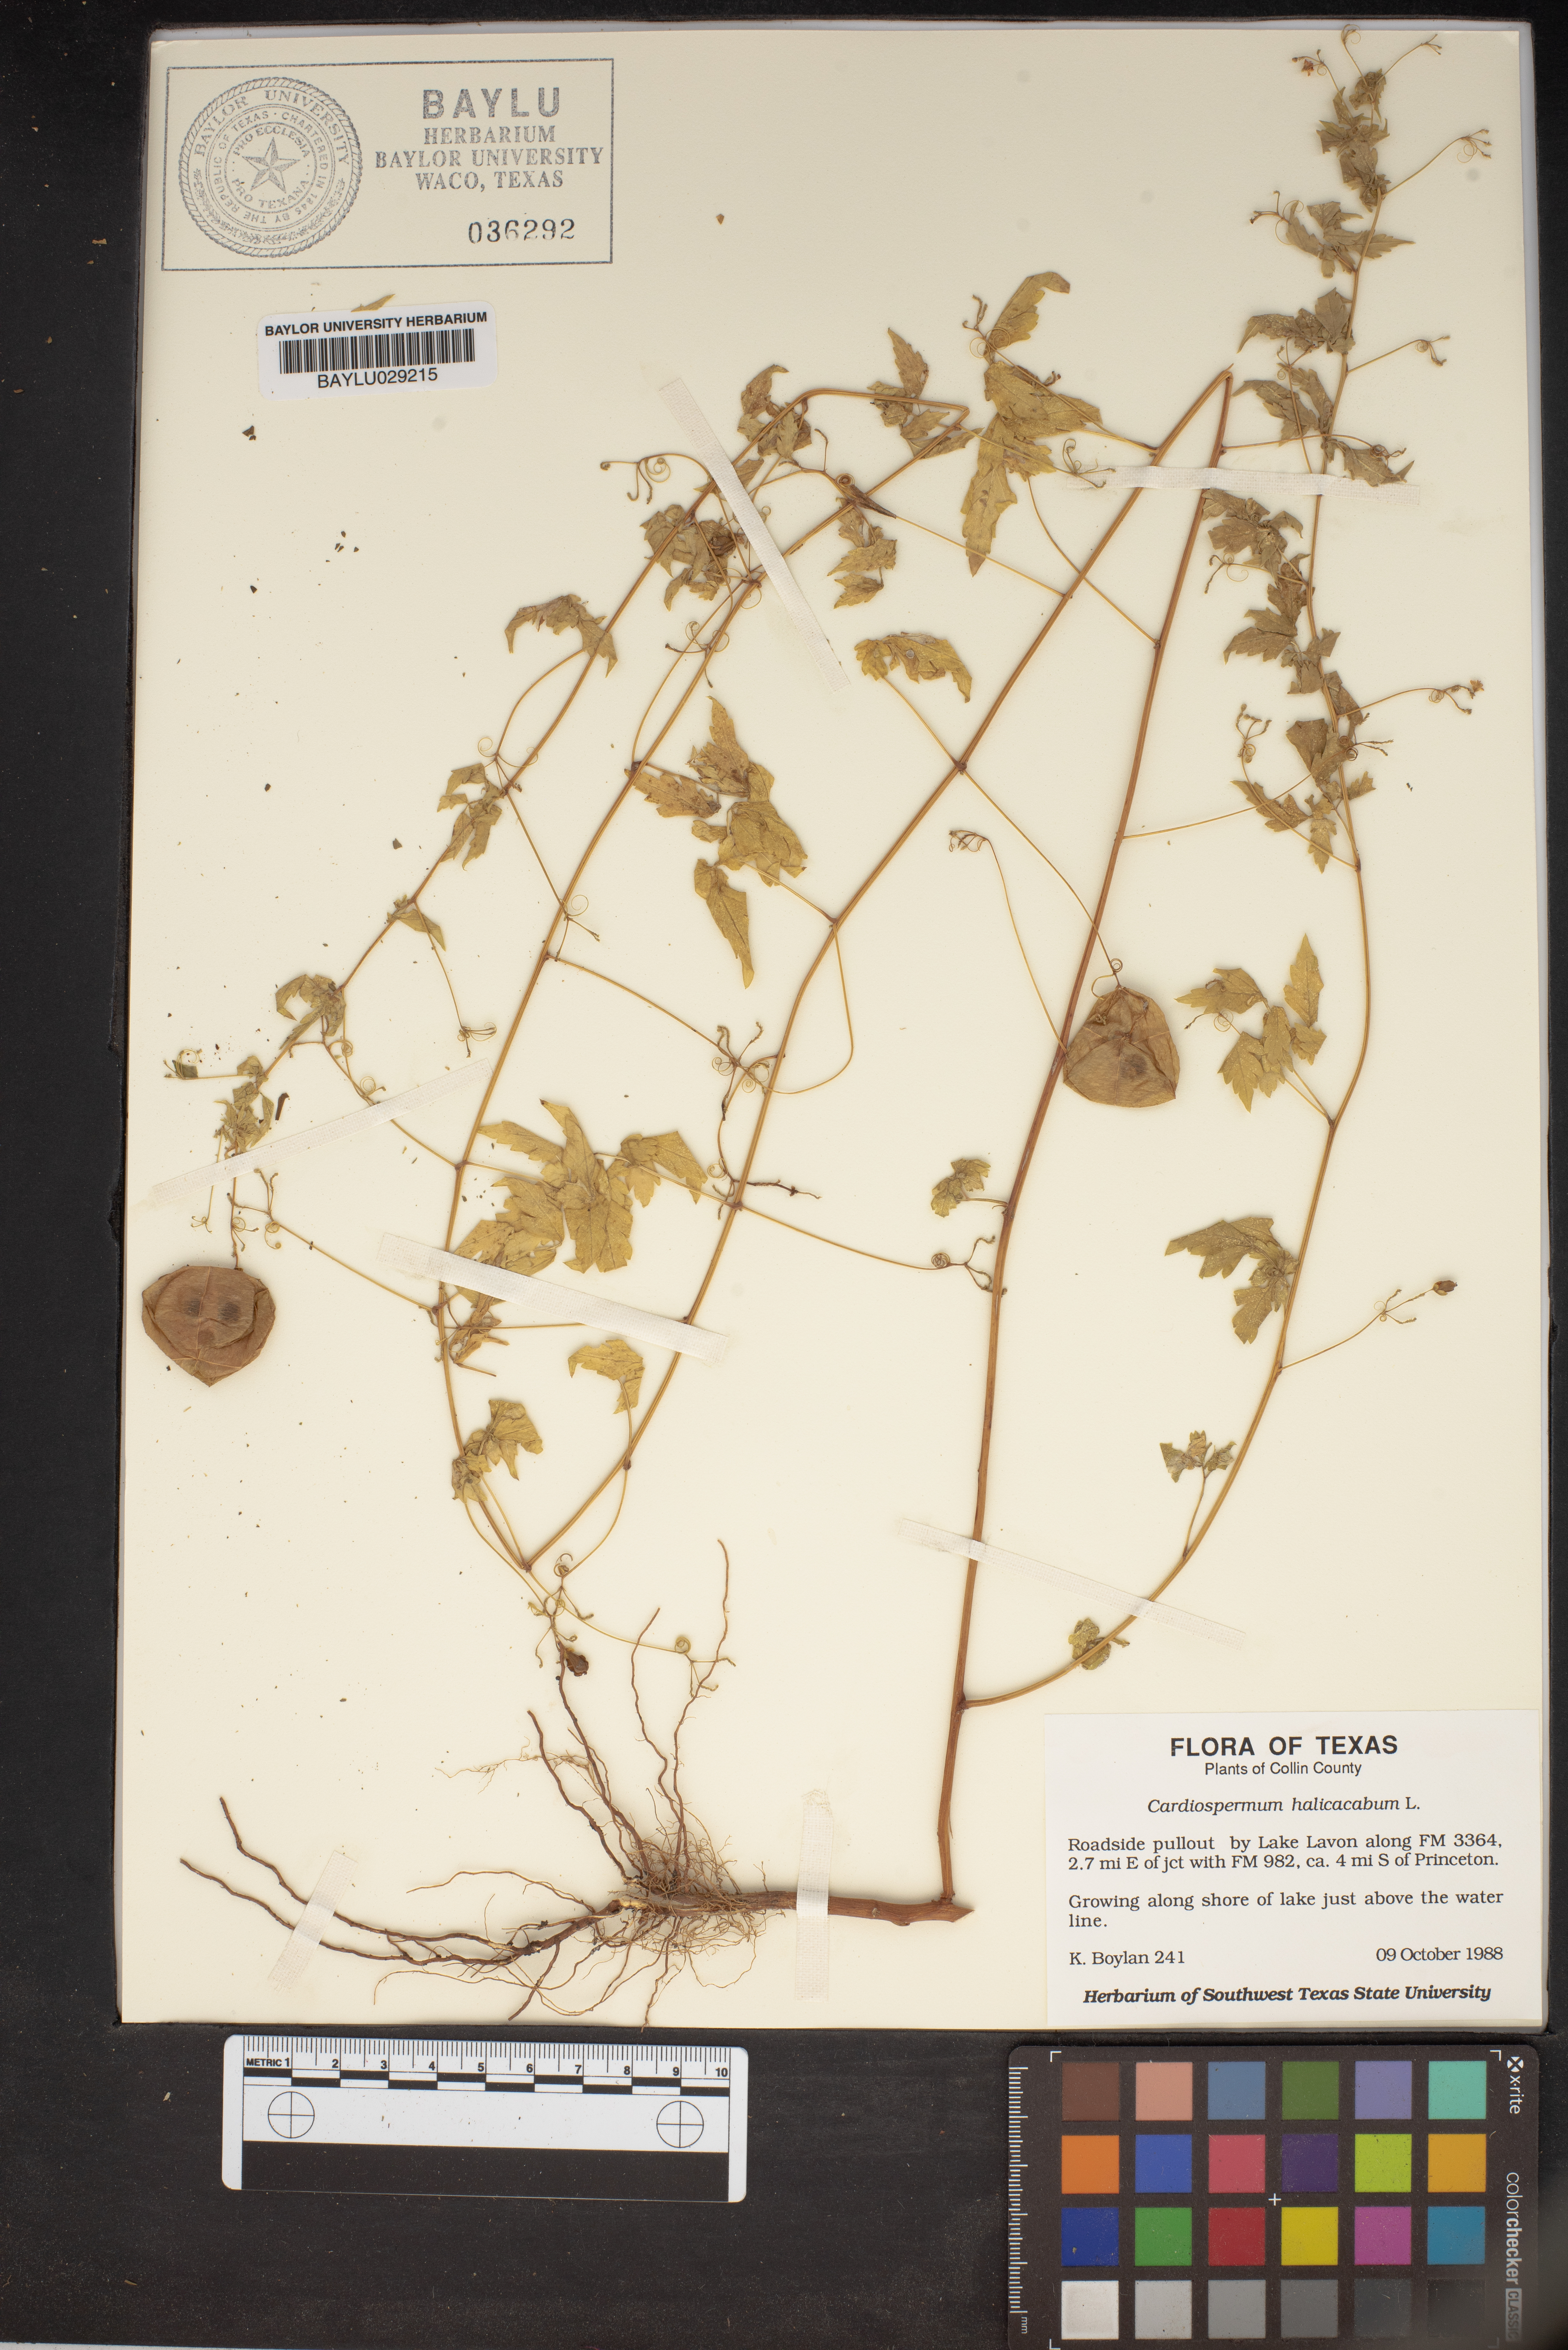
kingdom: Plantae
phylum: Tracheophyta
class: Magnoliopsida
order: Sapindales
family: Sapindaceae
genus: Cardiospermum
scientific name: Cardiospermum halicacabum
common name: Balloon vine
